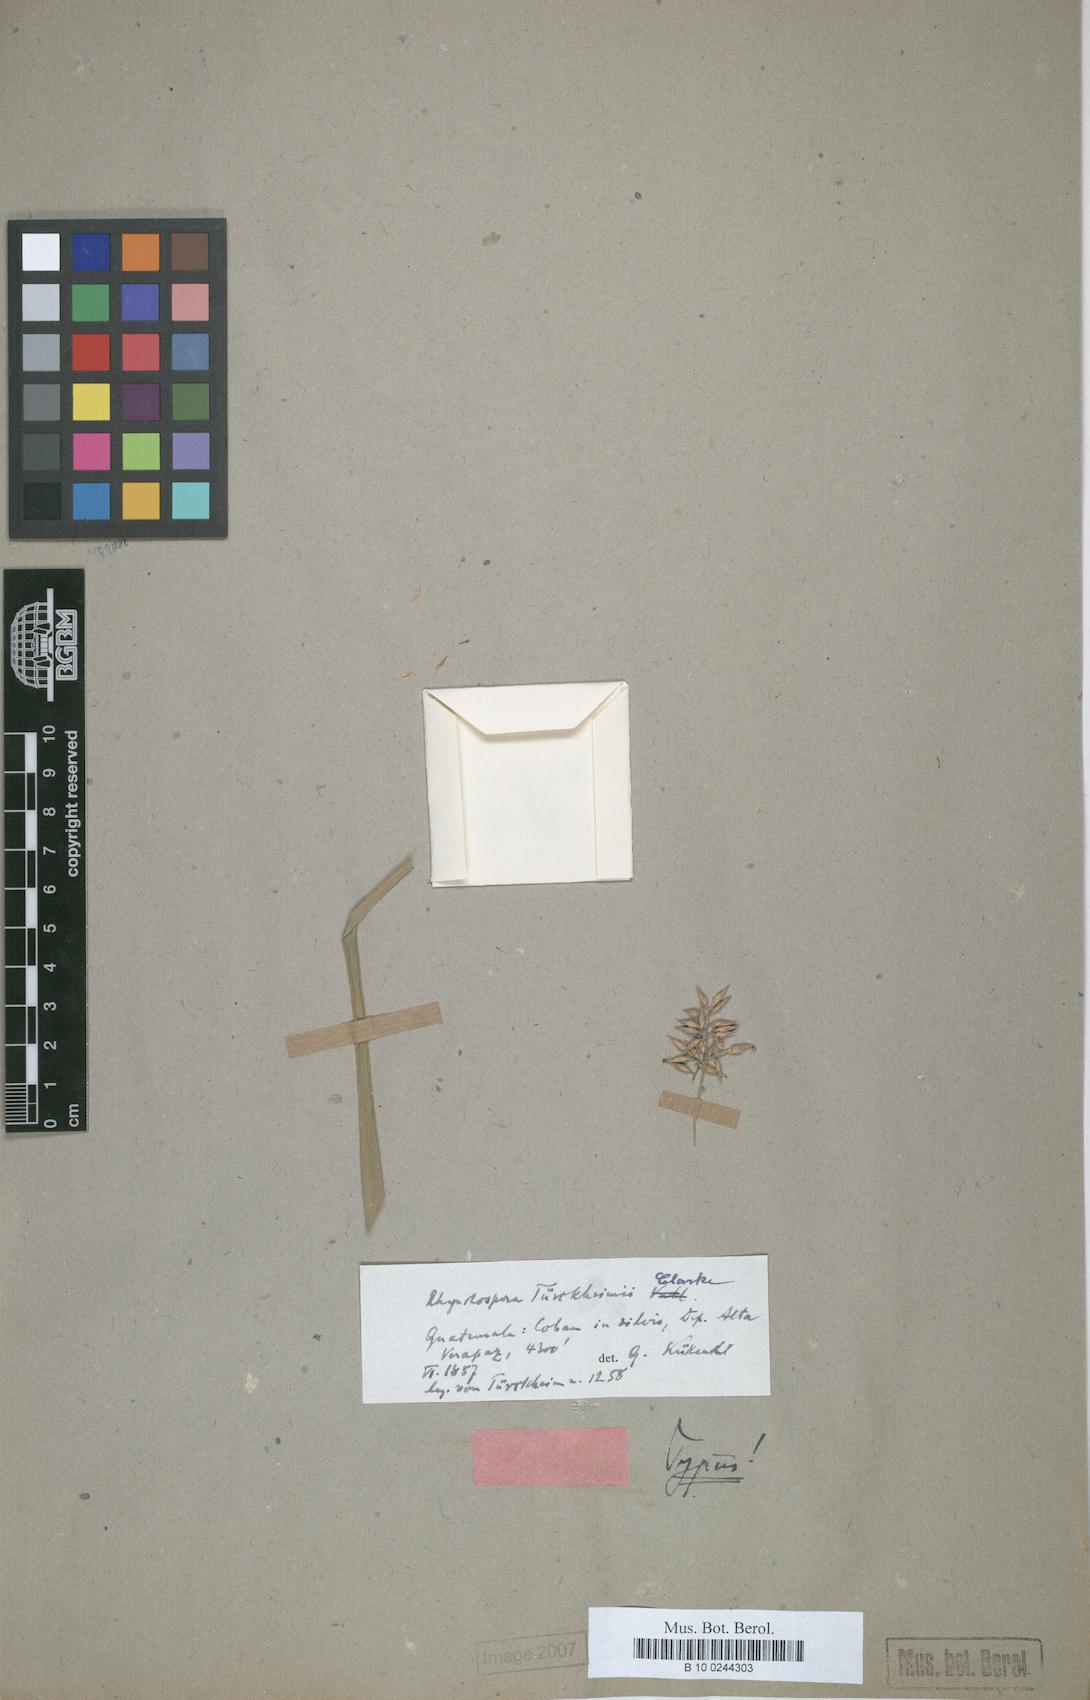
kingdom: Plantae
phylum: Tracheophyta
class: Liliopsida
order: Poales
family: Cyperaceae
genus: Rhynchospora
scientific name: Rhynchospora tuerckheimii
